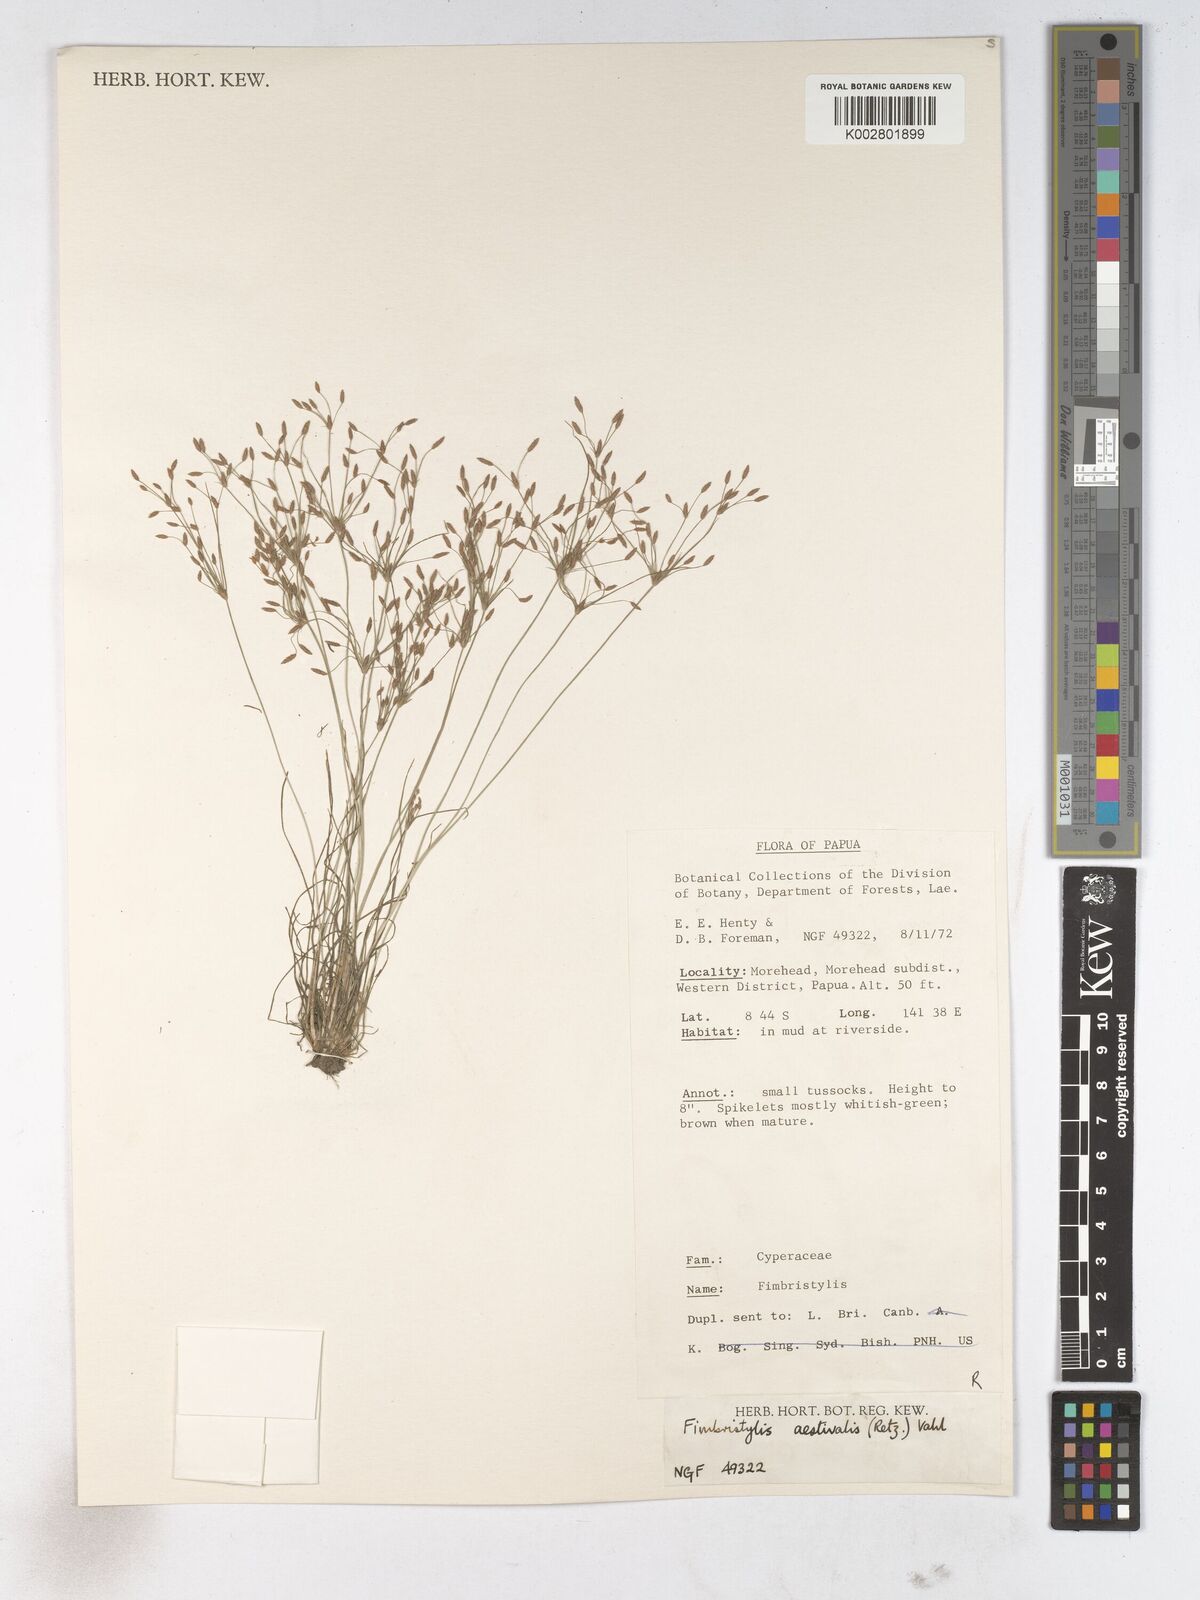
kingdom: Plantae
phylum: Tracheophyta
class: Liliopsida
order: Poales
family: Cyperaceae
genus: Fimbristylis
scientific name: Fimbristylis aestivalis
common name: Summer fimbry
